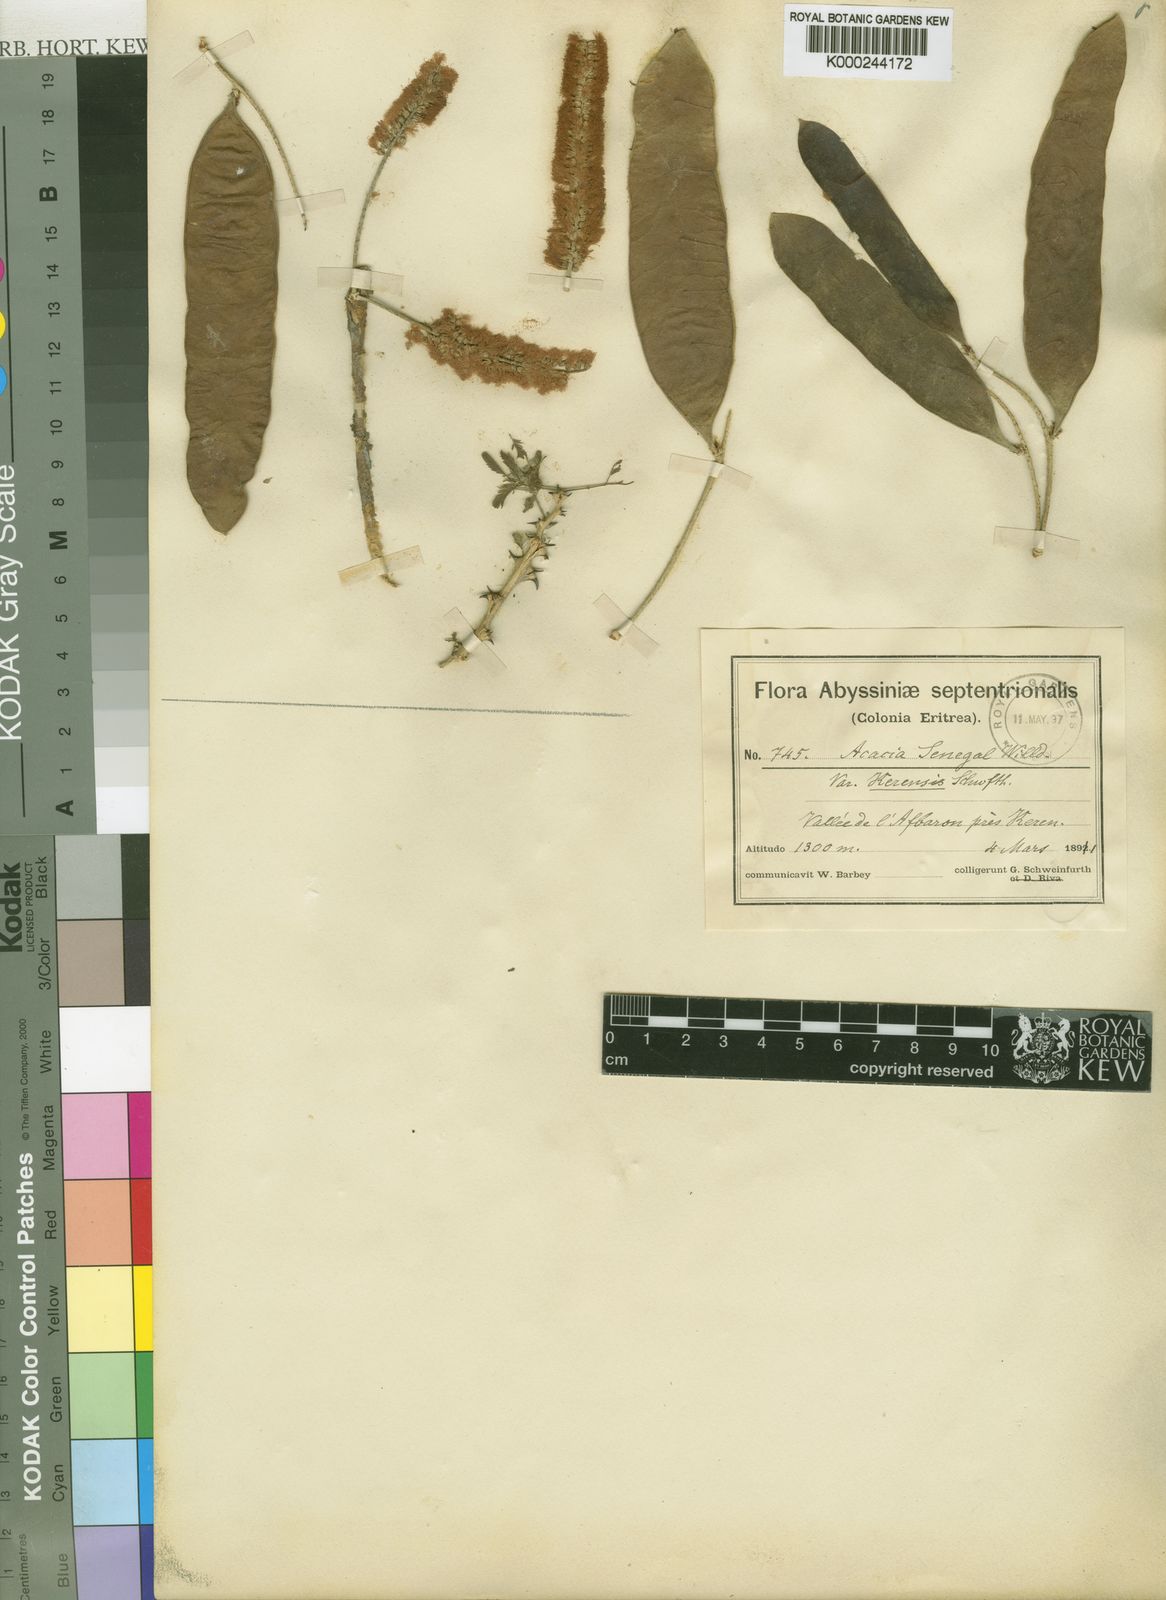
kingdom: Plantae
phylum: Tracheophyta
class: Magnoliopsida
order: Fabales
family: Fabaceae
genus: Senegalia
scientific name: Senegalia senegal
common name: Senegal-gum
